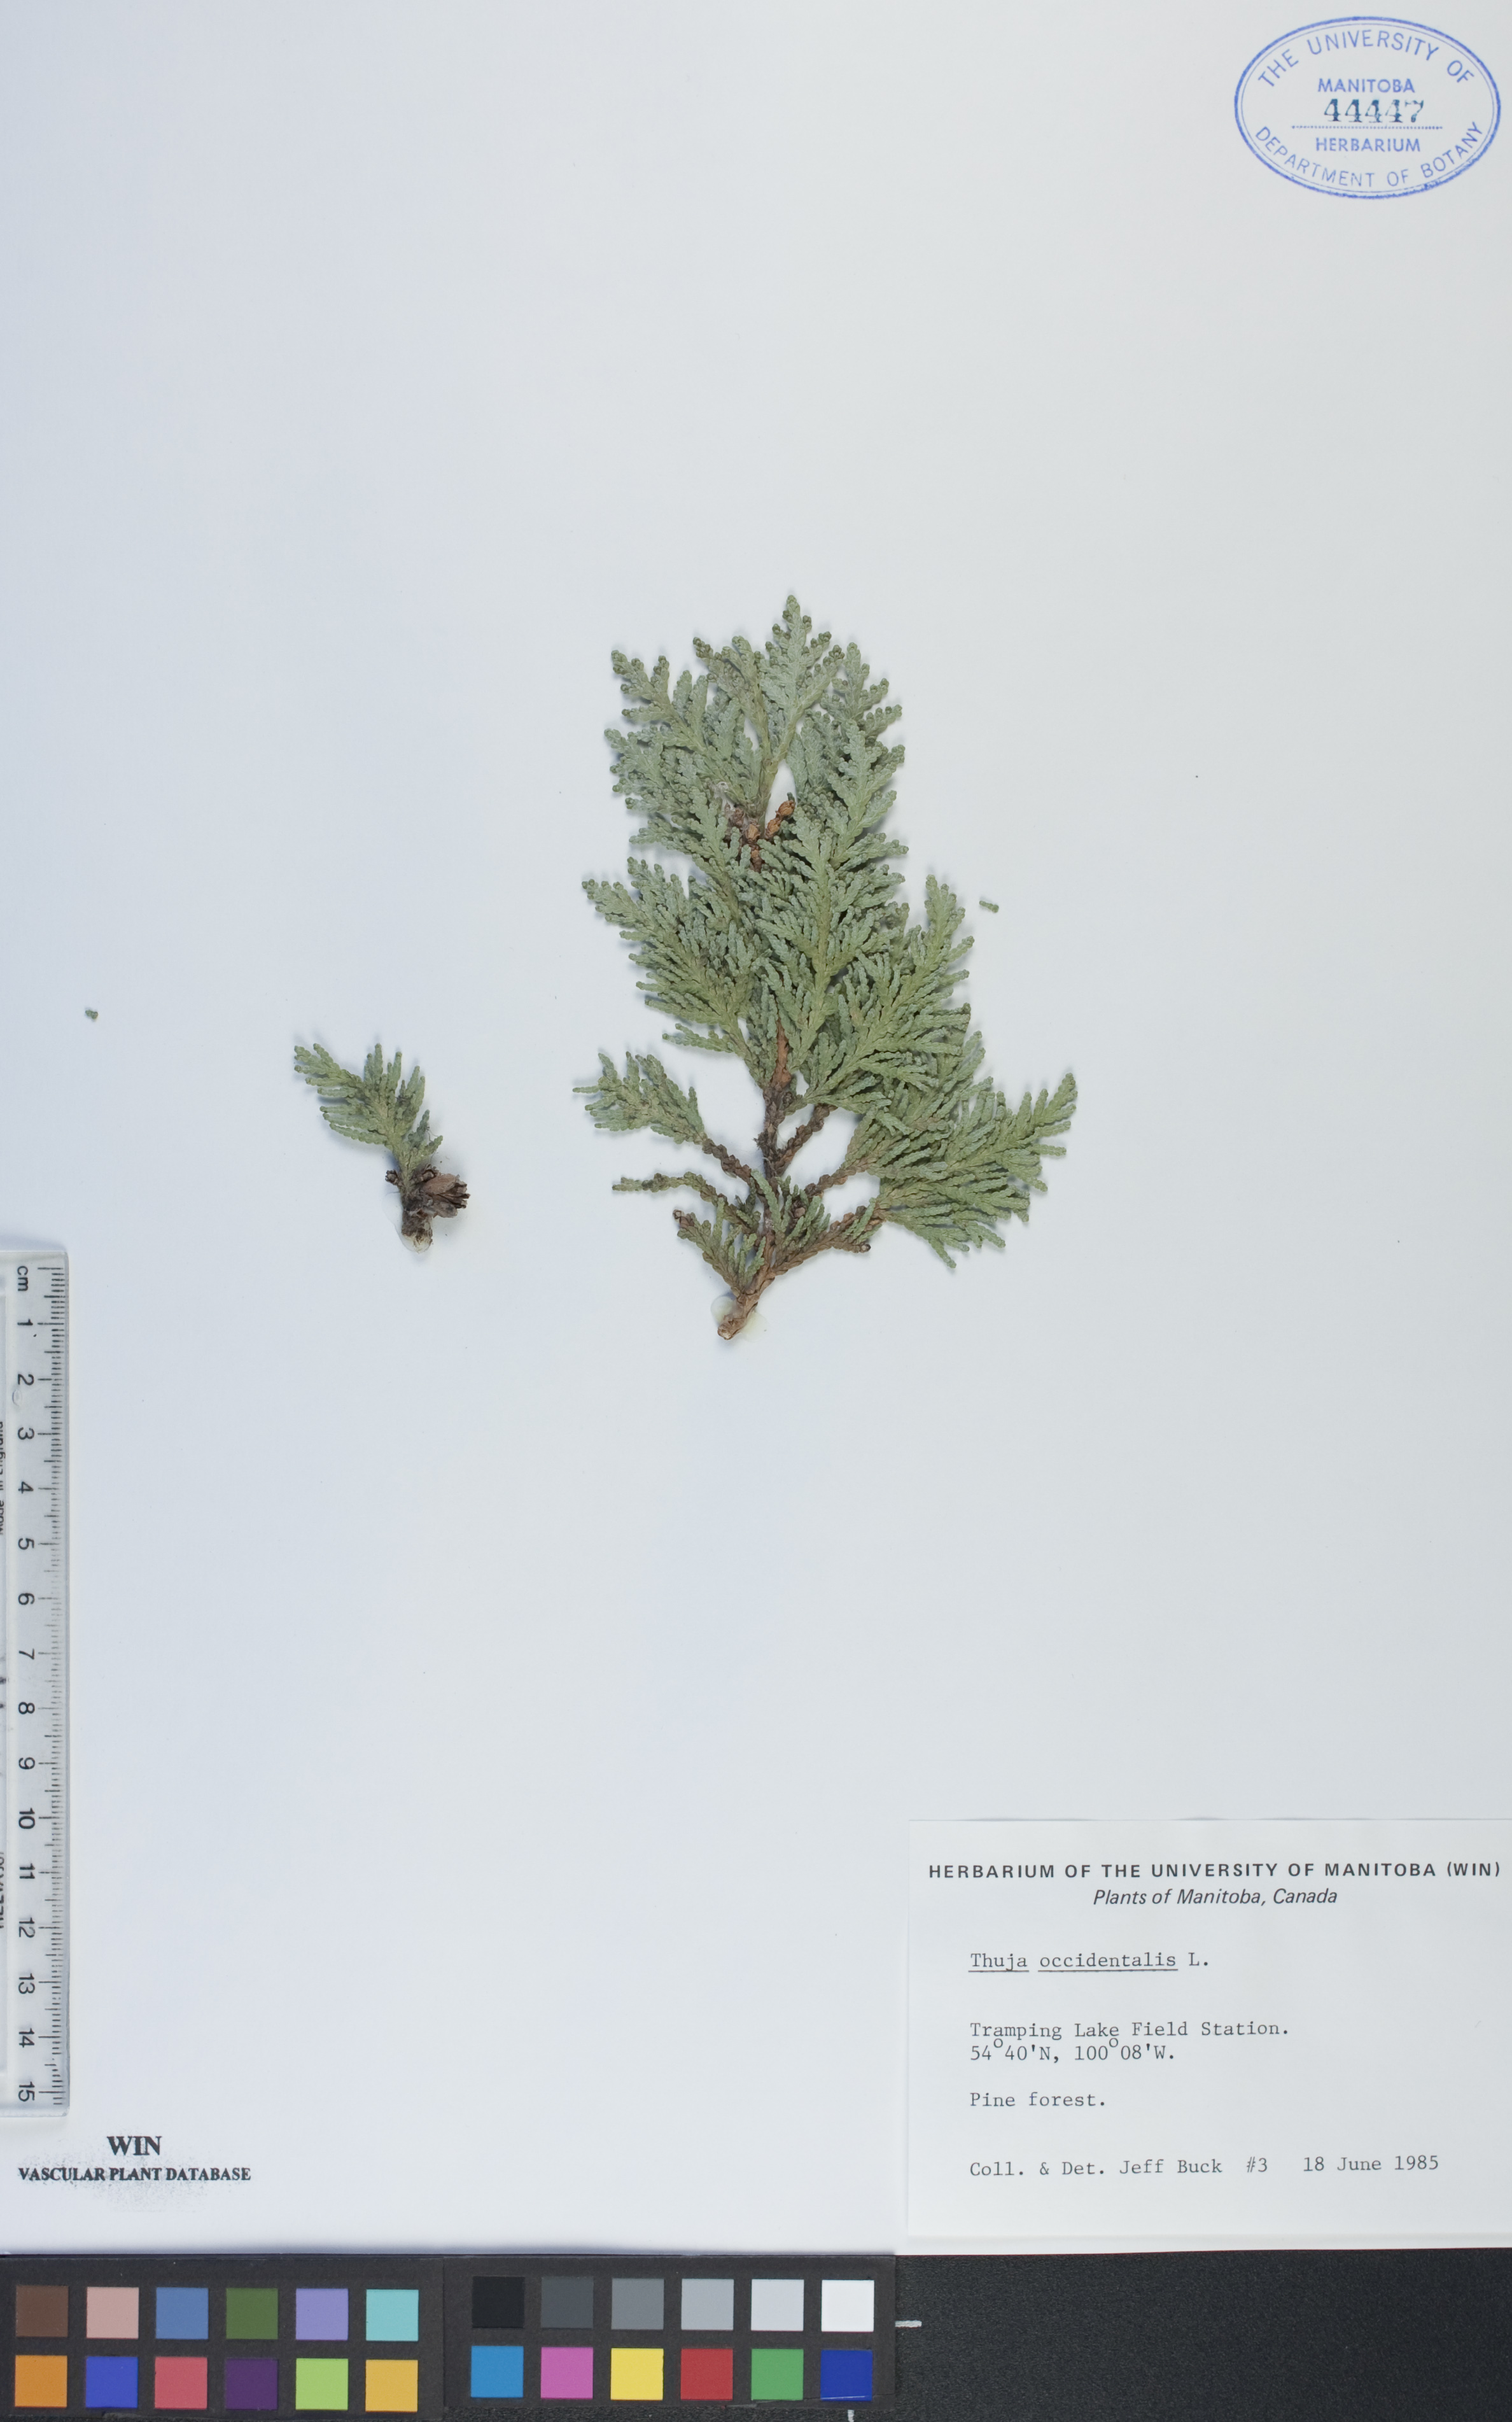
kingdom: Plantae
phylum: Tracheophyta
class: Pinopsida
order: Pinales
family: Cupressaceae
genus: Thuja
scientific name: Thuja occidentalis
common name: Northern white-cedar
